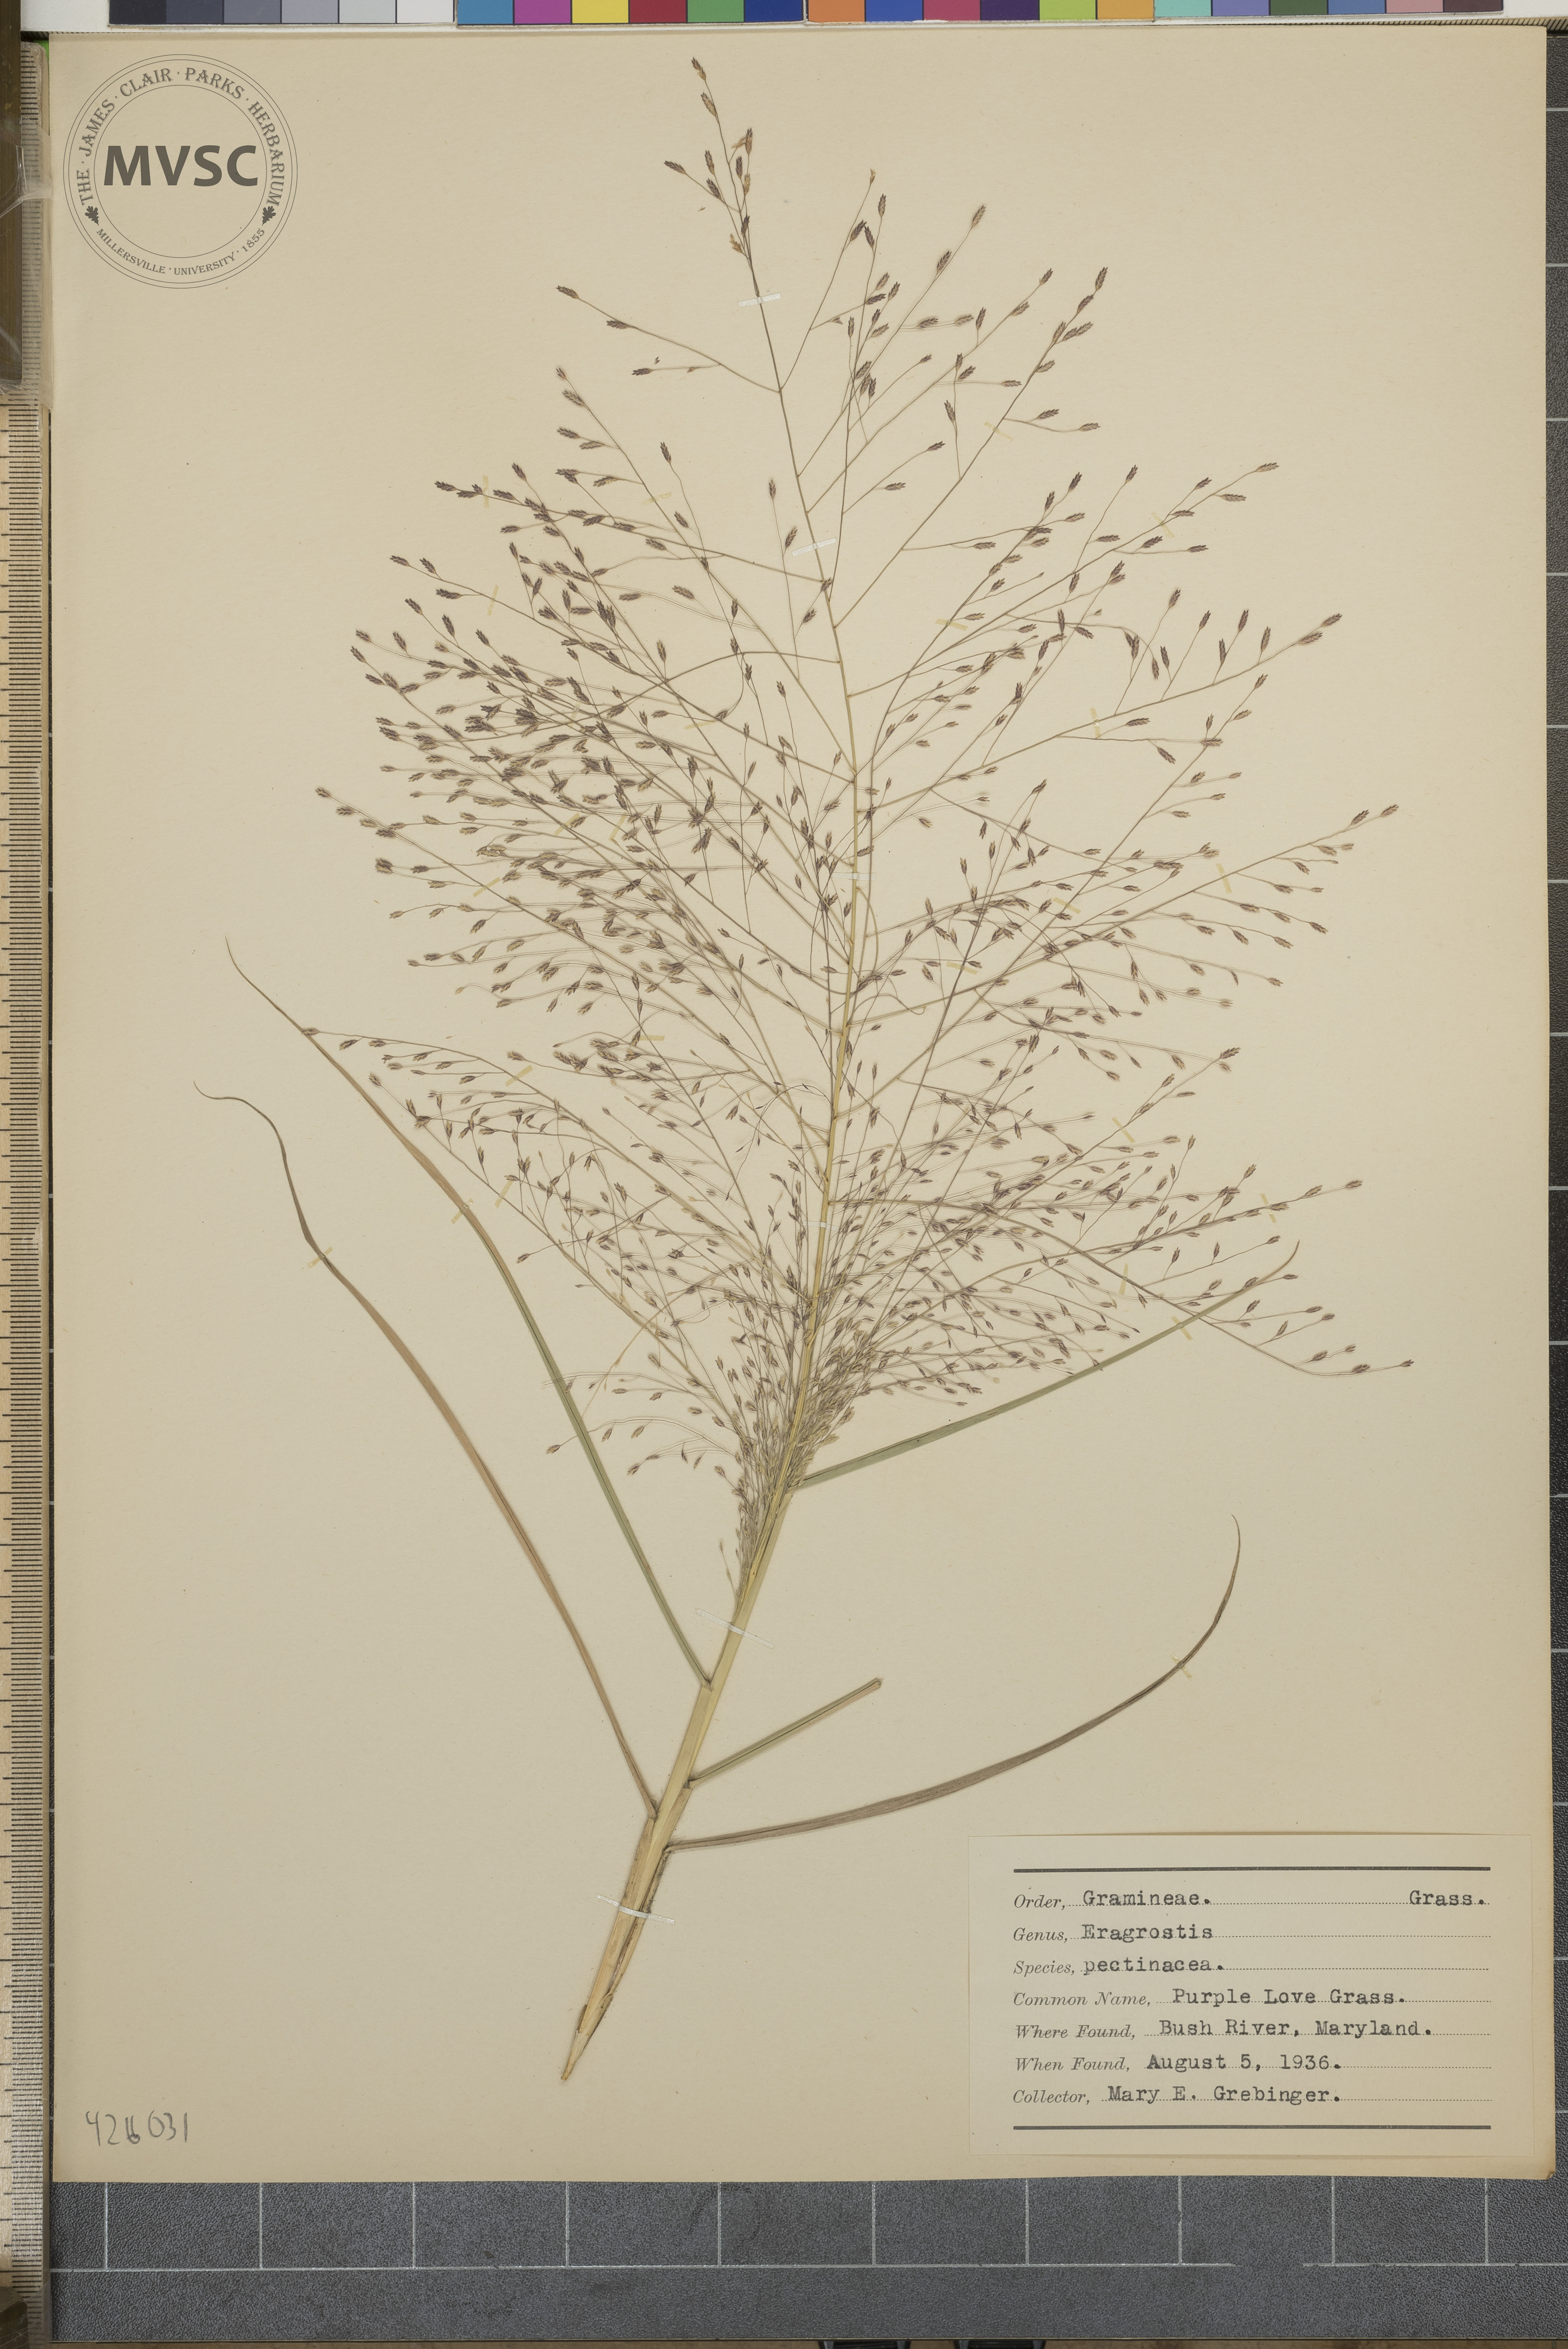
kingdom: Plantae
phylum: Tracheophyta
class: Liliopsida
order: Poales
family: Poaceae
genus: Eragrostis
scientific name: Eragrostis pectinacea
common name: Purple love grass
